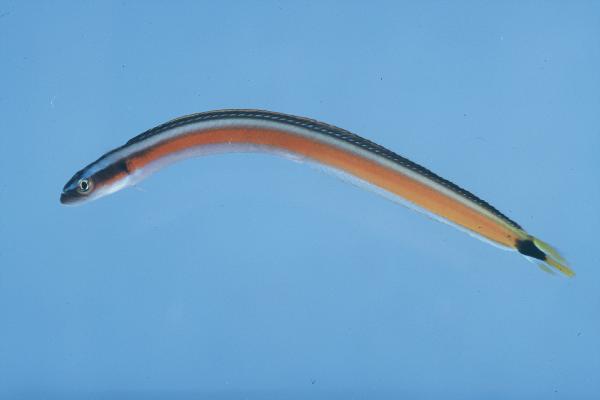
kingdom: Animalia
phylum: Chordata
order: Perciformes
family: Microdesmidae
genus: Gunnellichthys
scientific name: Gunnellichthys curiosus
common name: Curious wormfish
